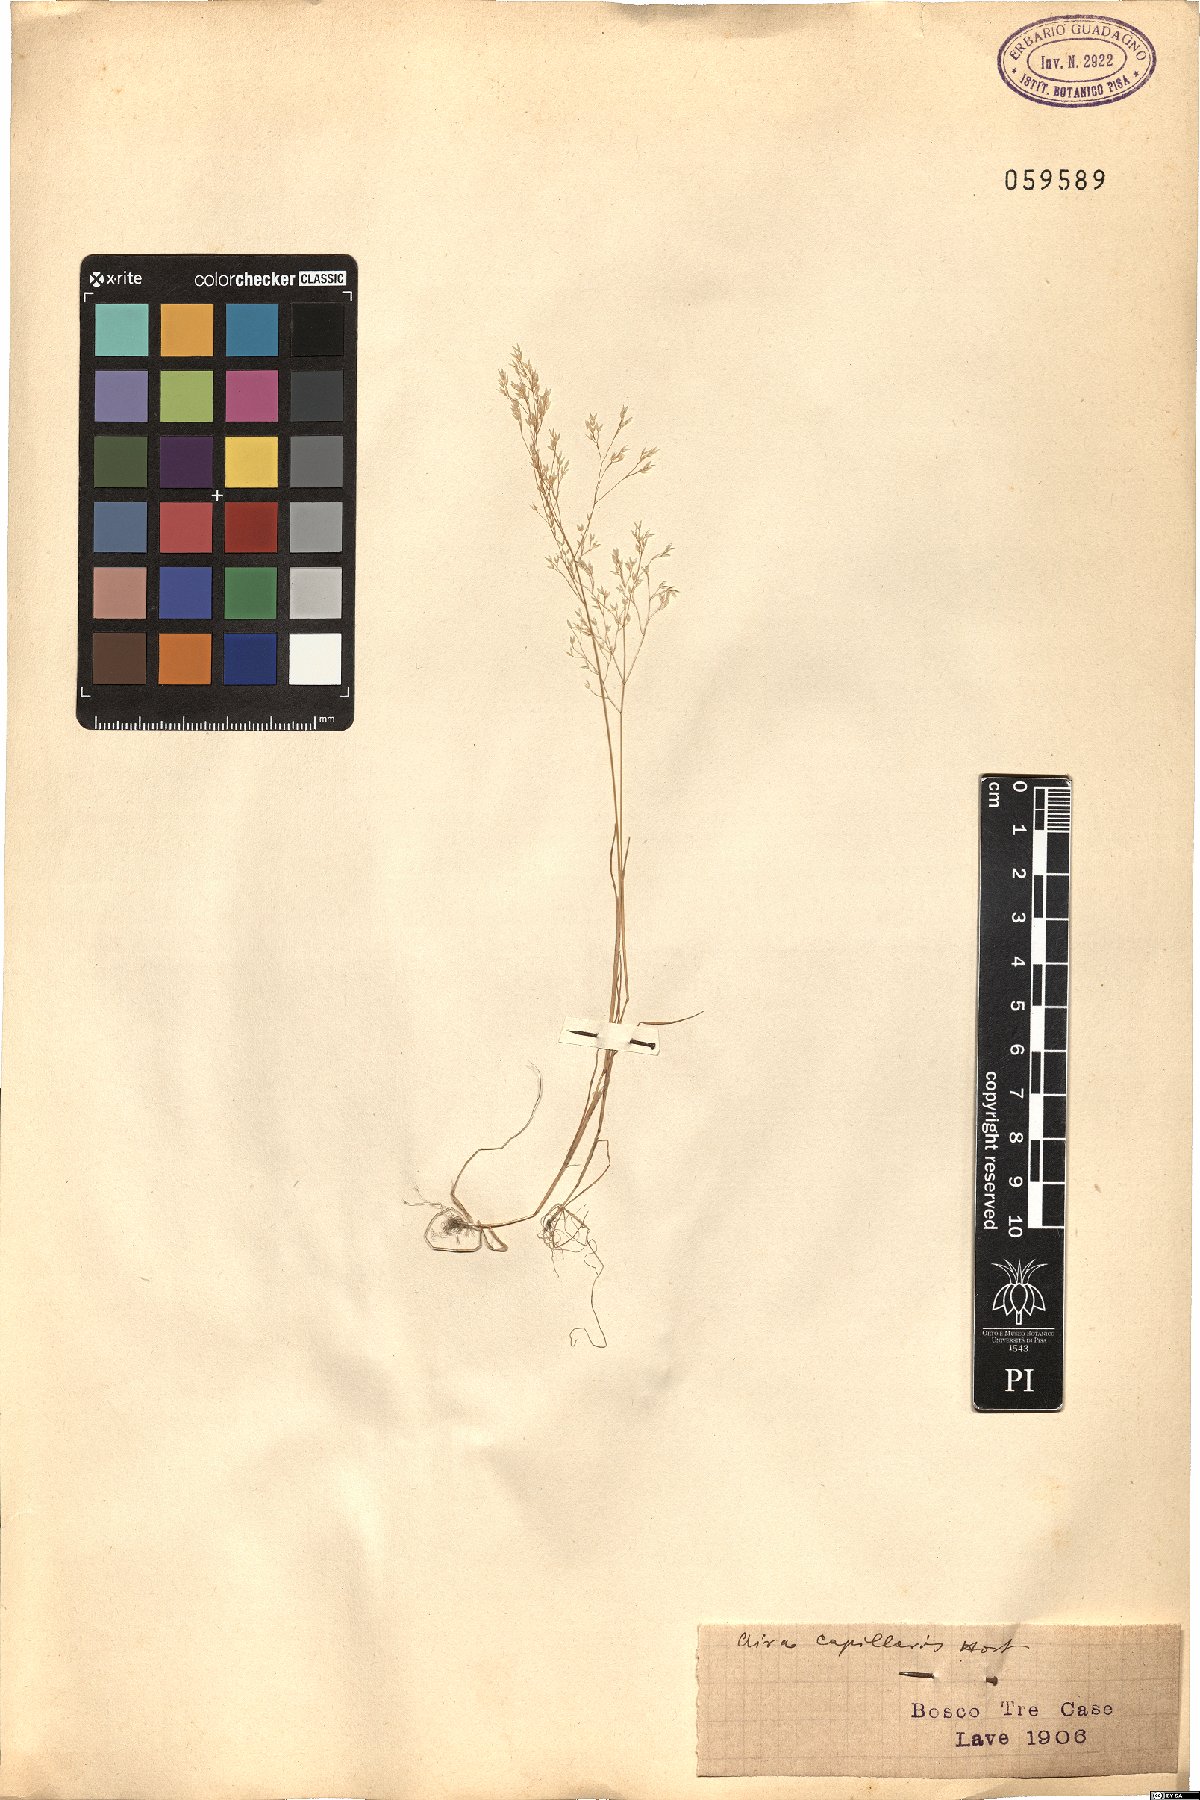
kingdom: Plantae
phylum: Tracheophyta
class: Liliopsida
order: Poales
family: Poaceae
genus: Aira
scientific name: Aira elegans
